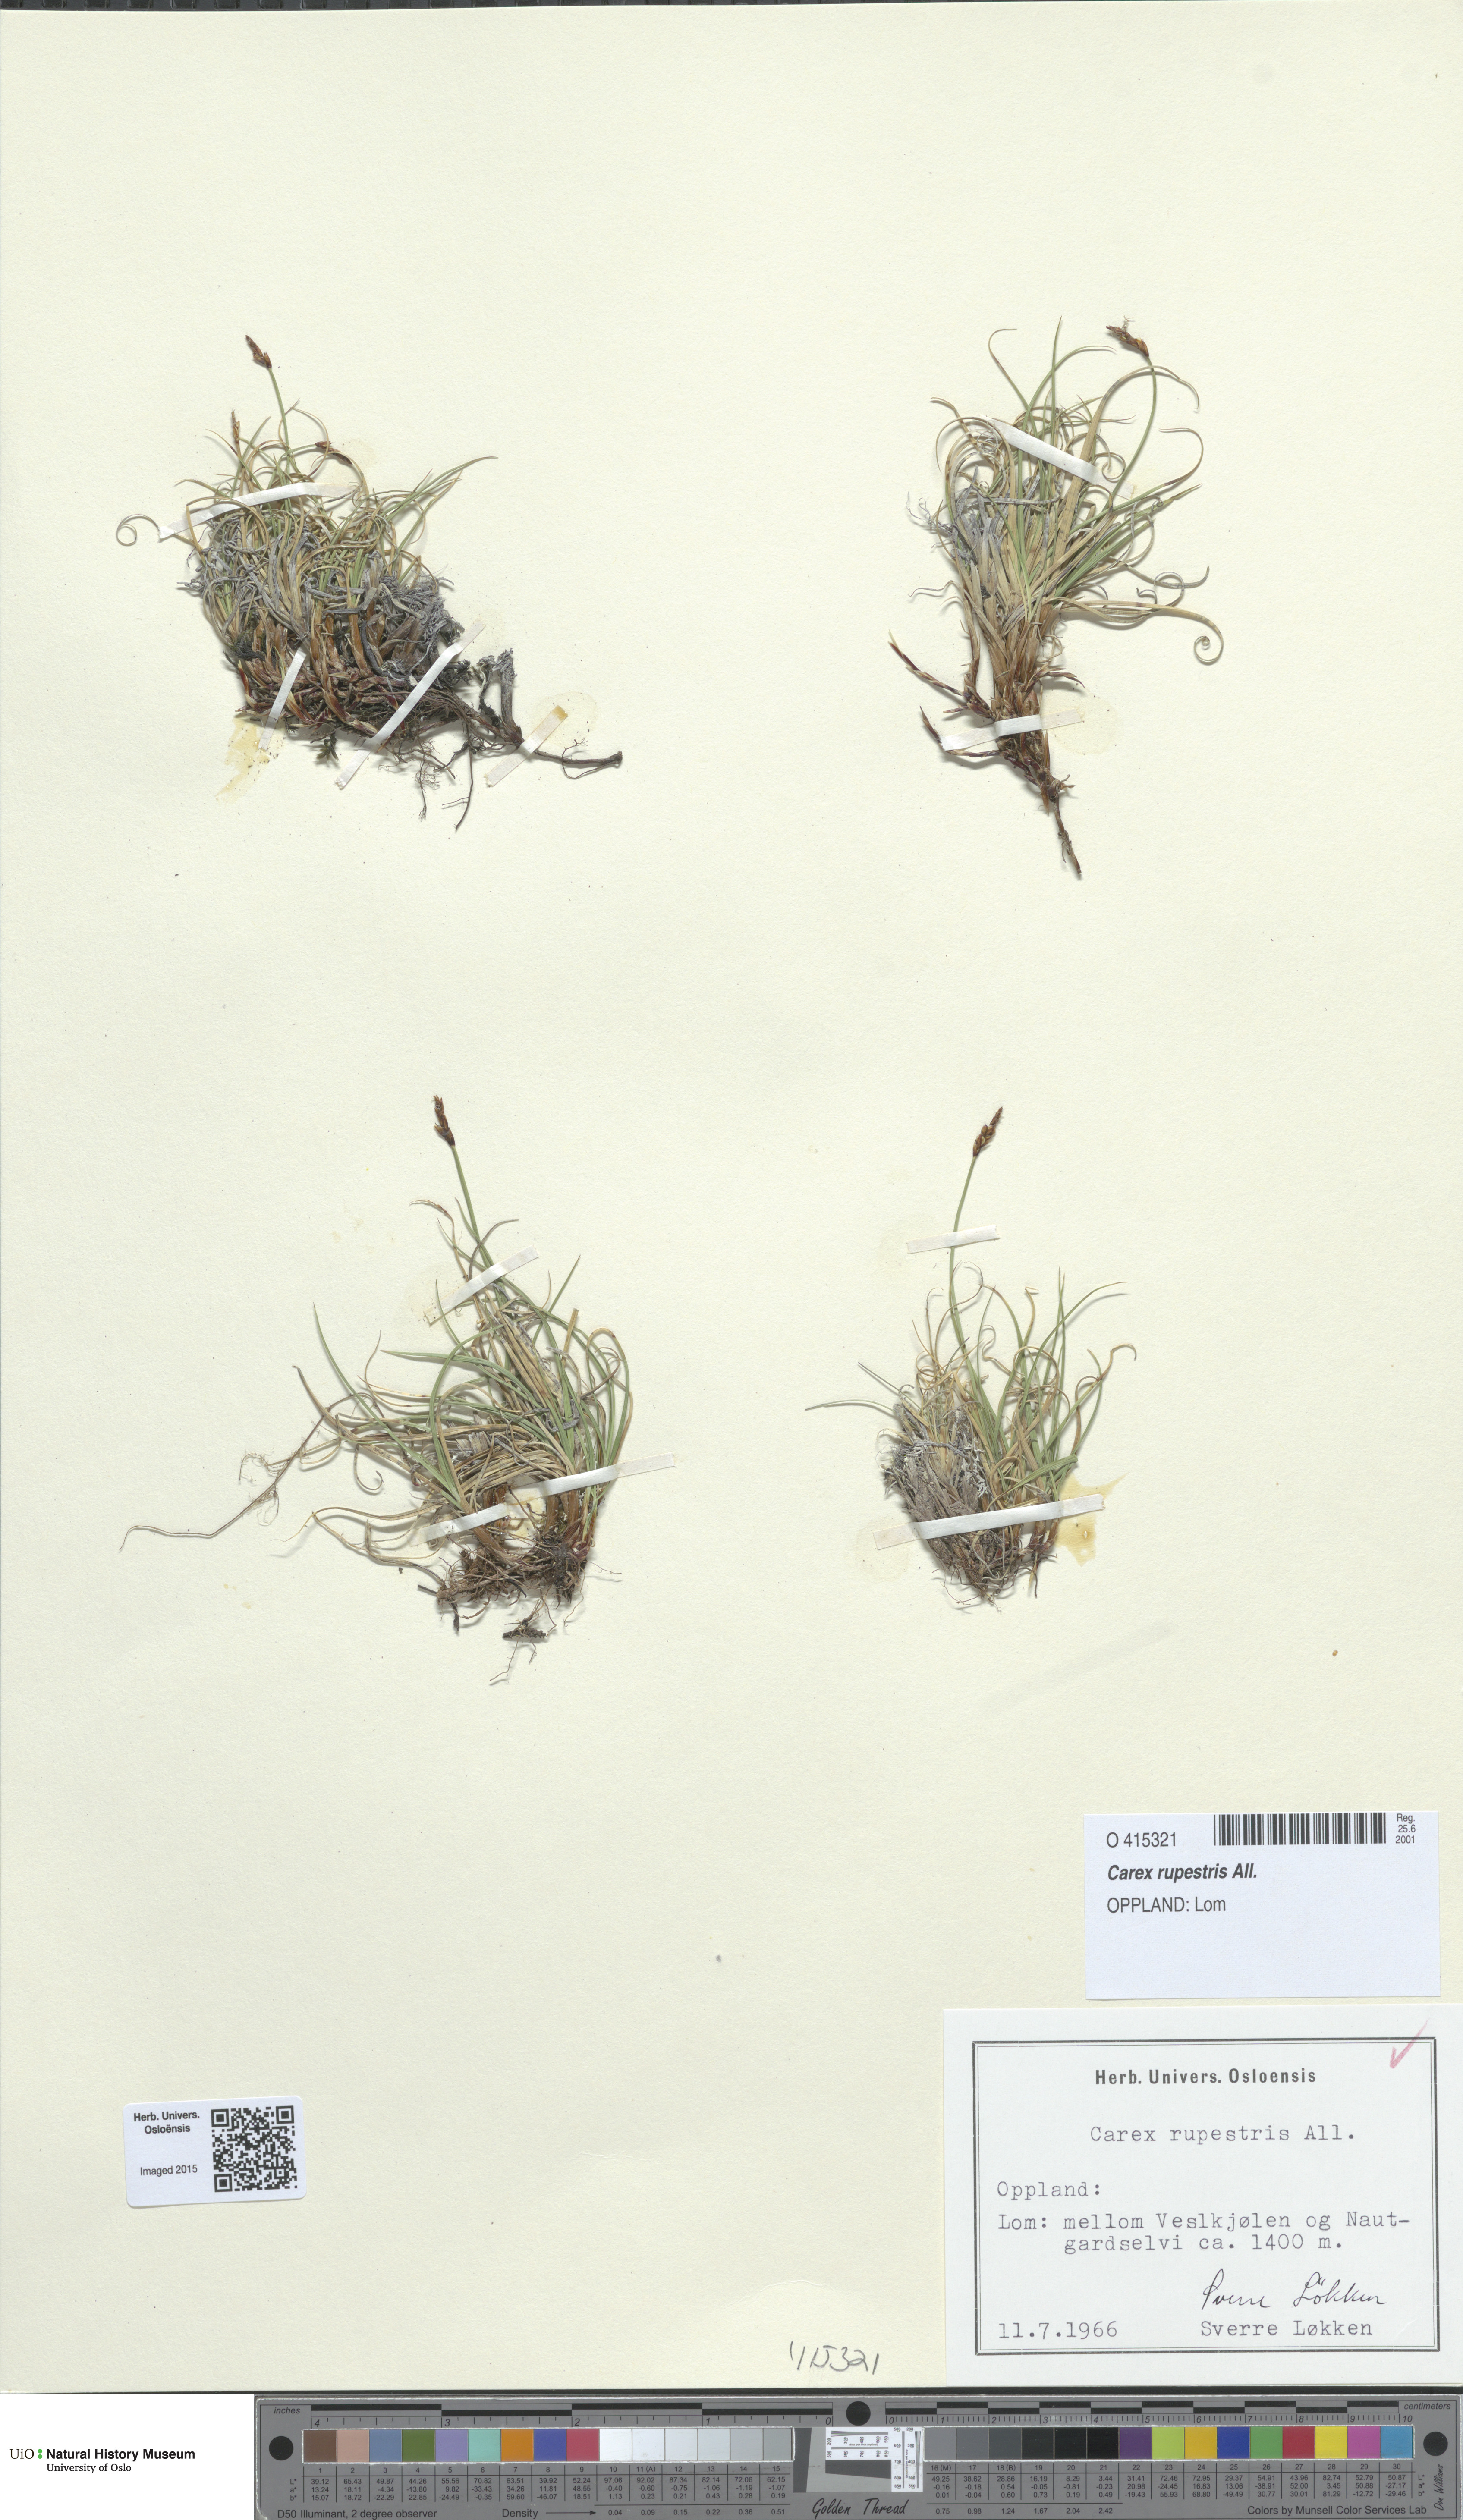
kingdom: Plantae
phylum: Tracheophyta
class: Liliopsida
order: Poales
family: Cyperaceae
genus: Carex
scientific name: Carex rupestris
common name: Rock sedge
